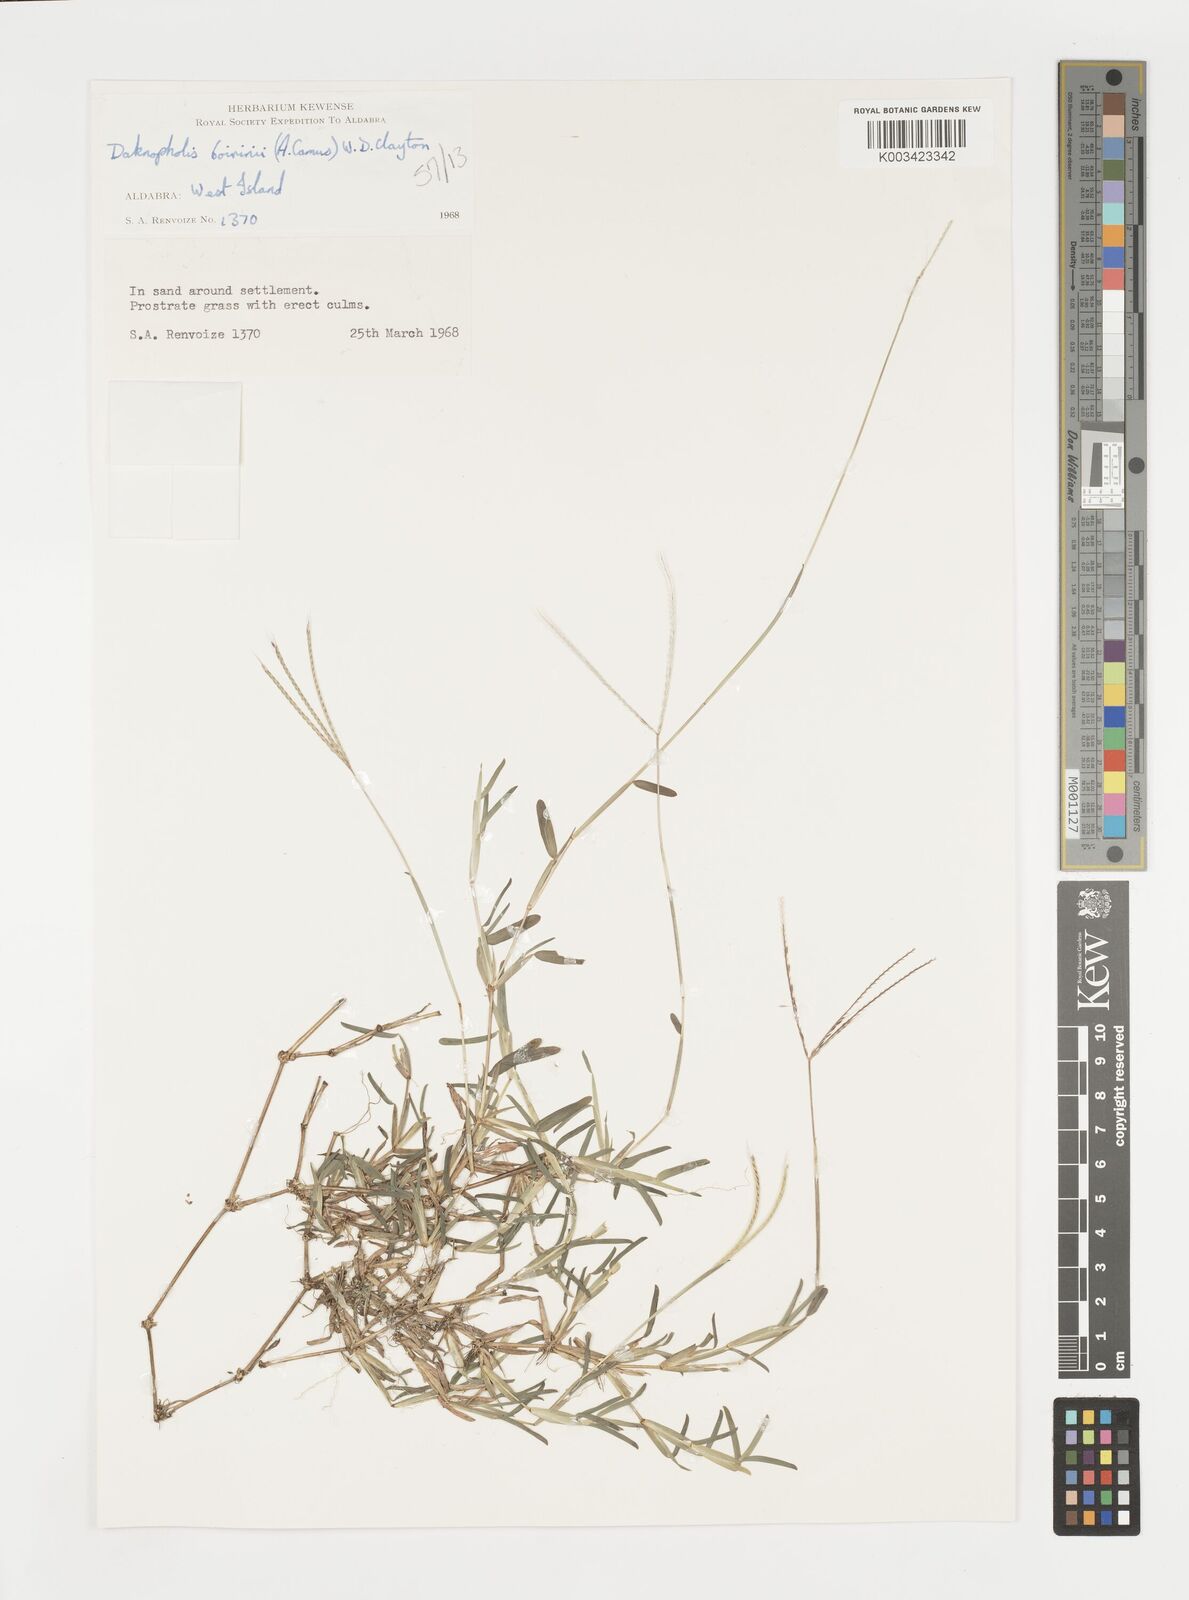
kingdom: Plantae
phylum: Tracheophyta
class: Liliopsida
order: Poales
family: Poaceae
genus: Daknopholis
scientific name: Daknopholis boivinii
